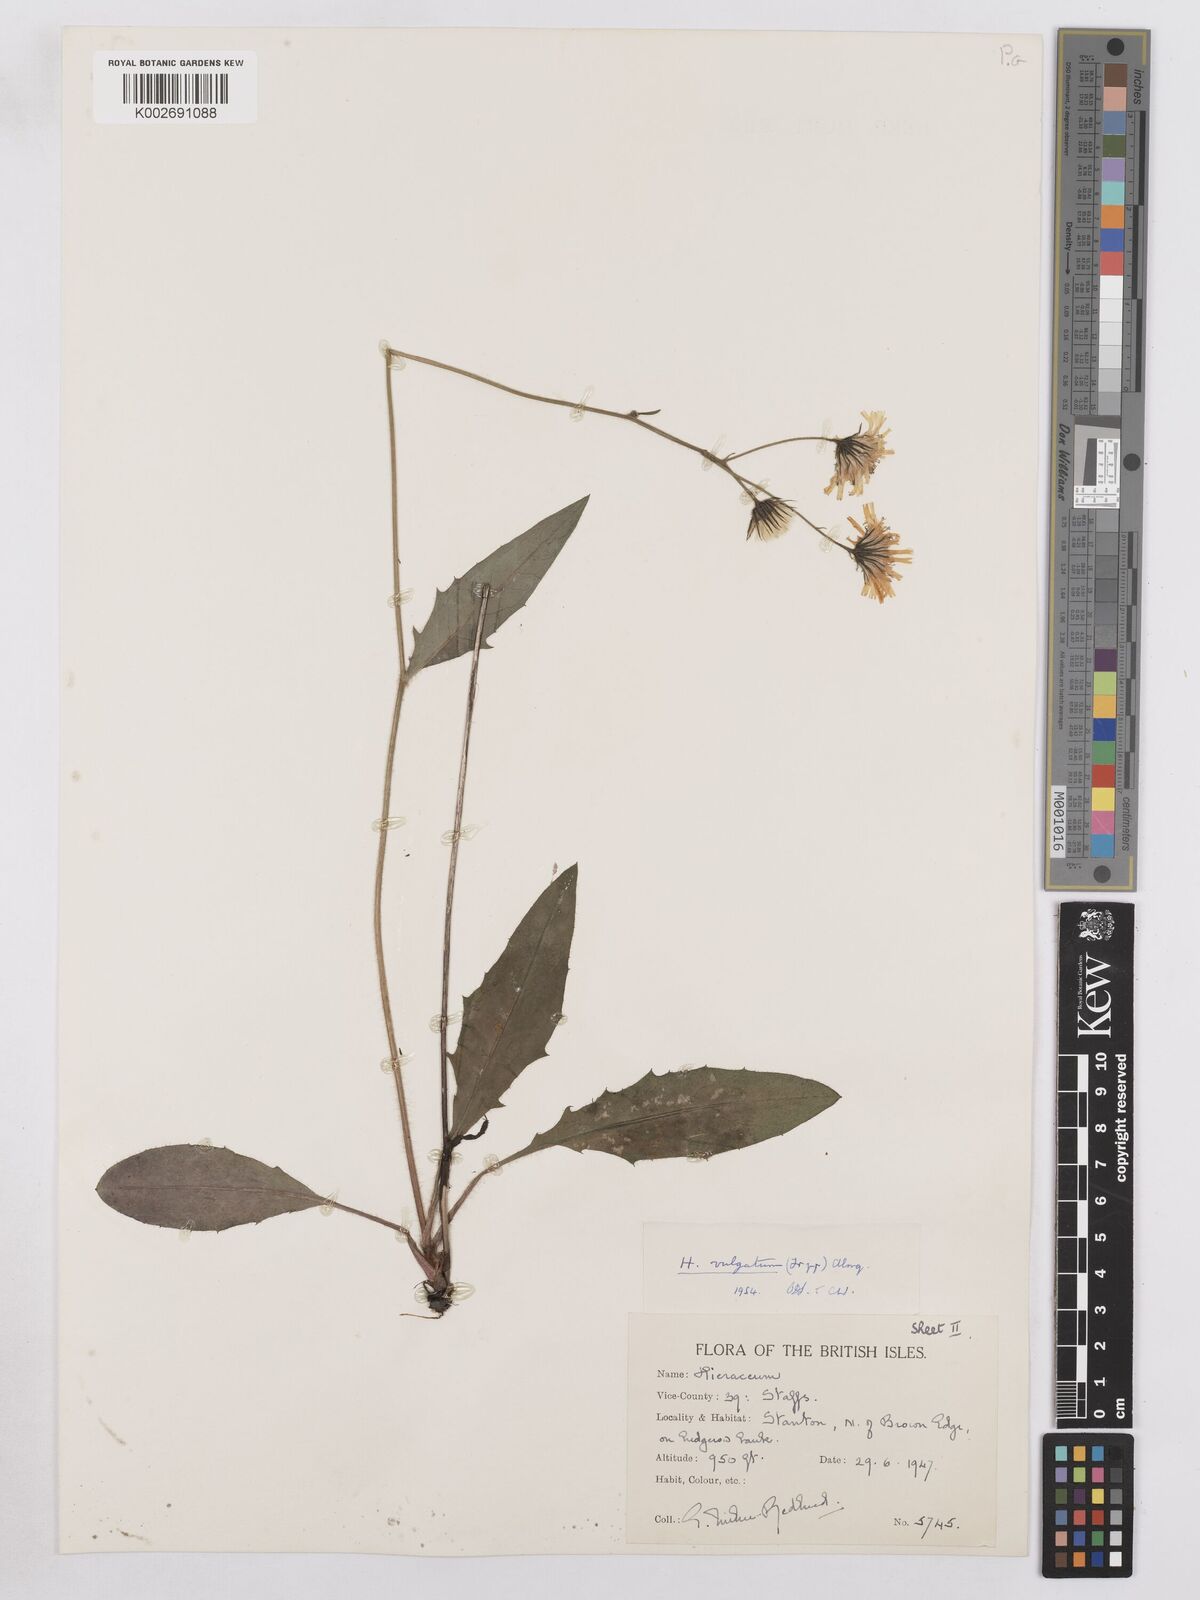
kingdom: Plantae
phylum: Tracheophyta
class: Magnoliopsida
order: Asterales
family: Asteraceae
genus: Hieracium
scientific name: Hieracium
